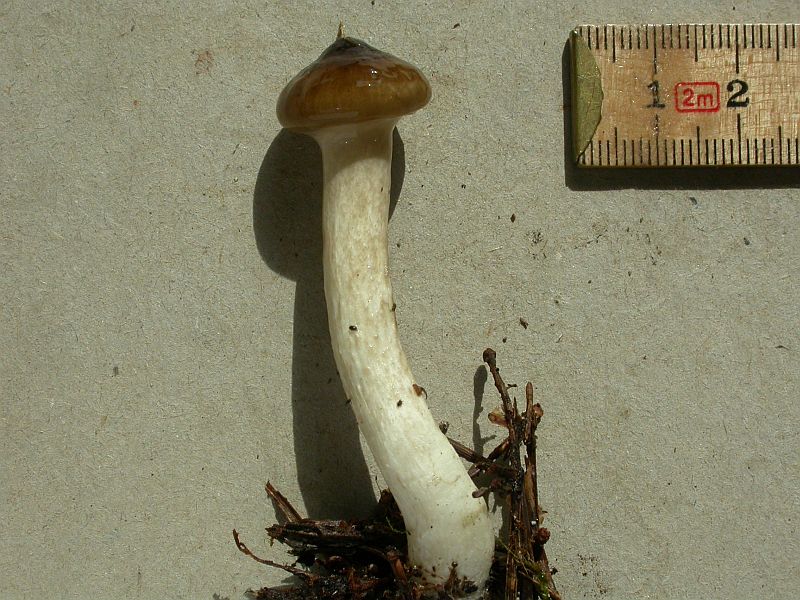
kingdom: Fungi
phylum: Basidiomycota
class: Agaricomycetes
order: Agaricales
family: Hygrophoraceae
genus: Hygrophorus
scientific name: Hygrophorus olivaceoalbus
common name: hvidbrun sneglehat
